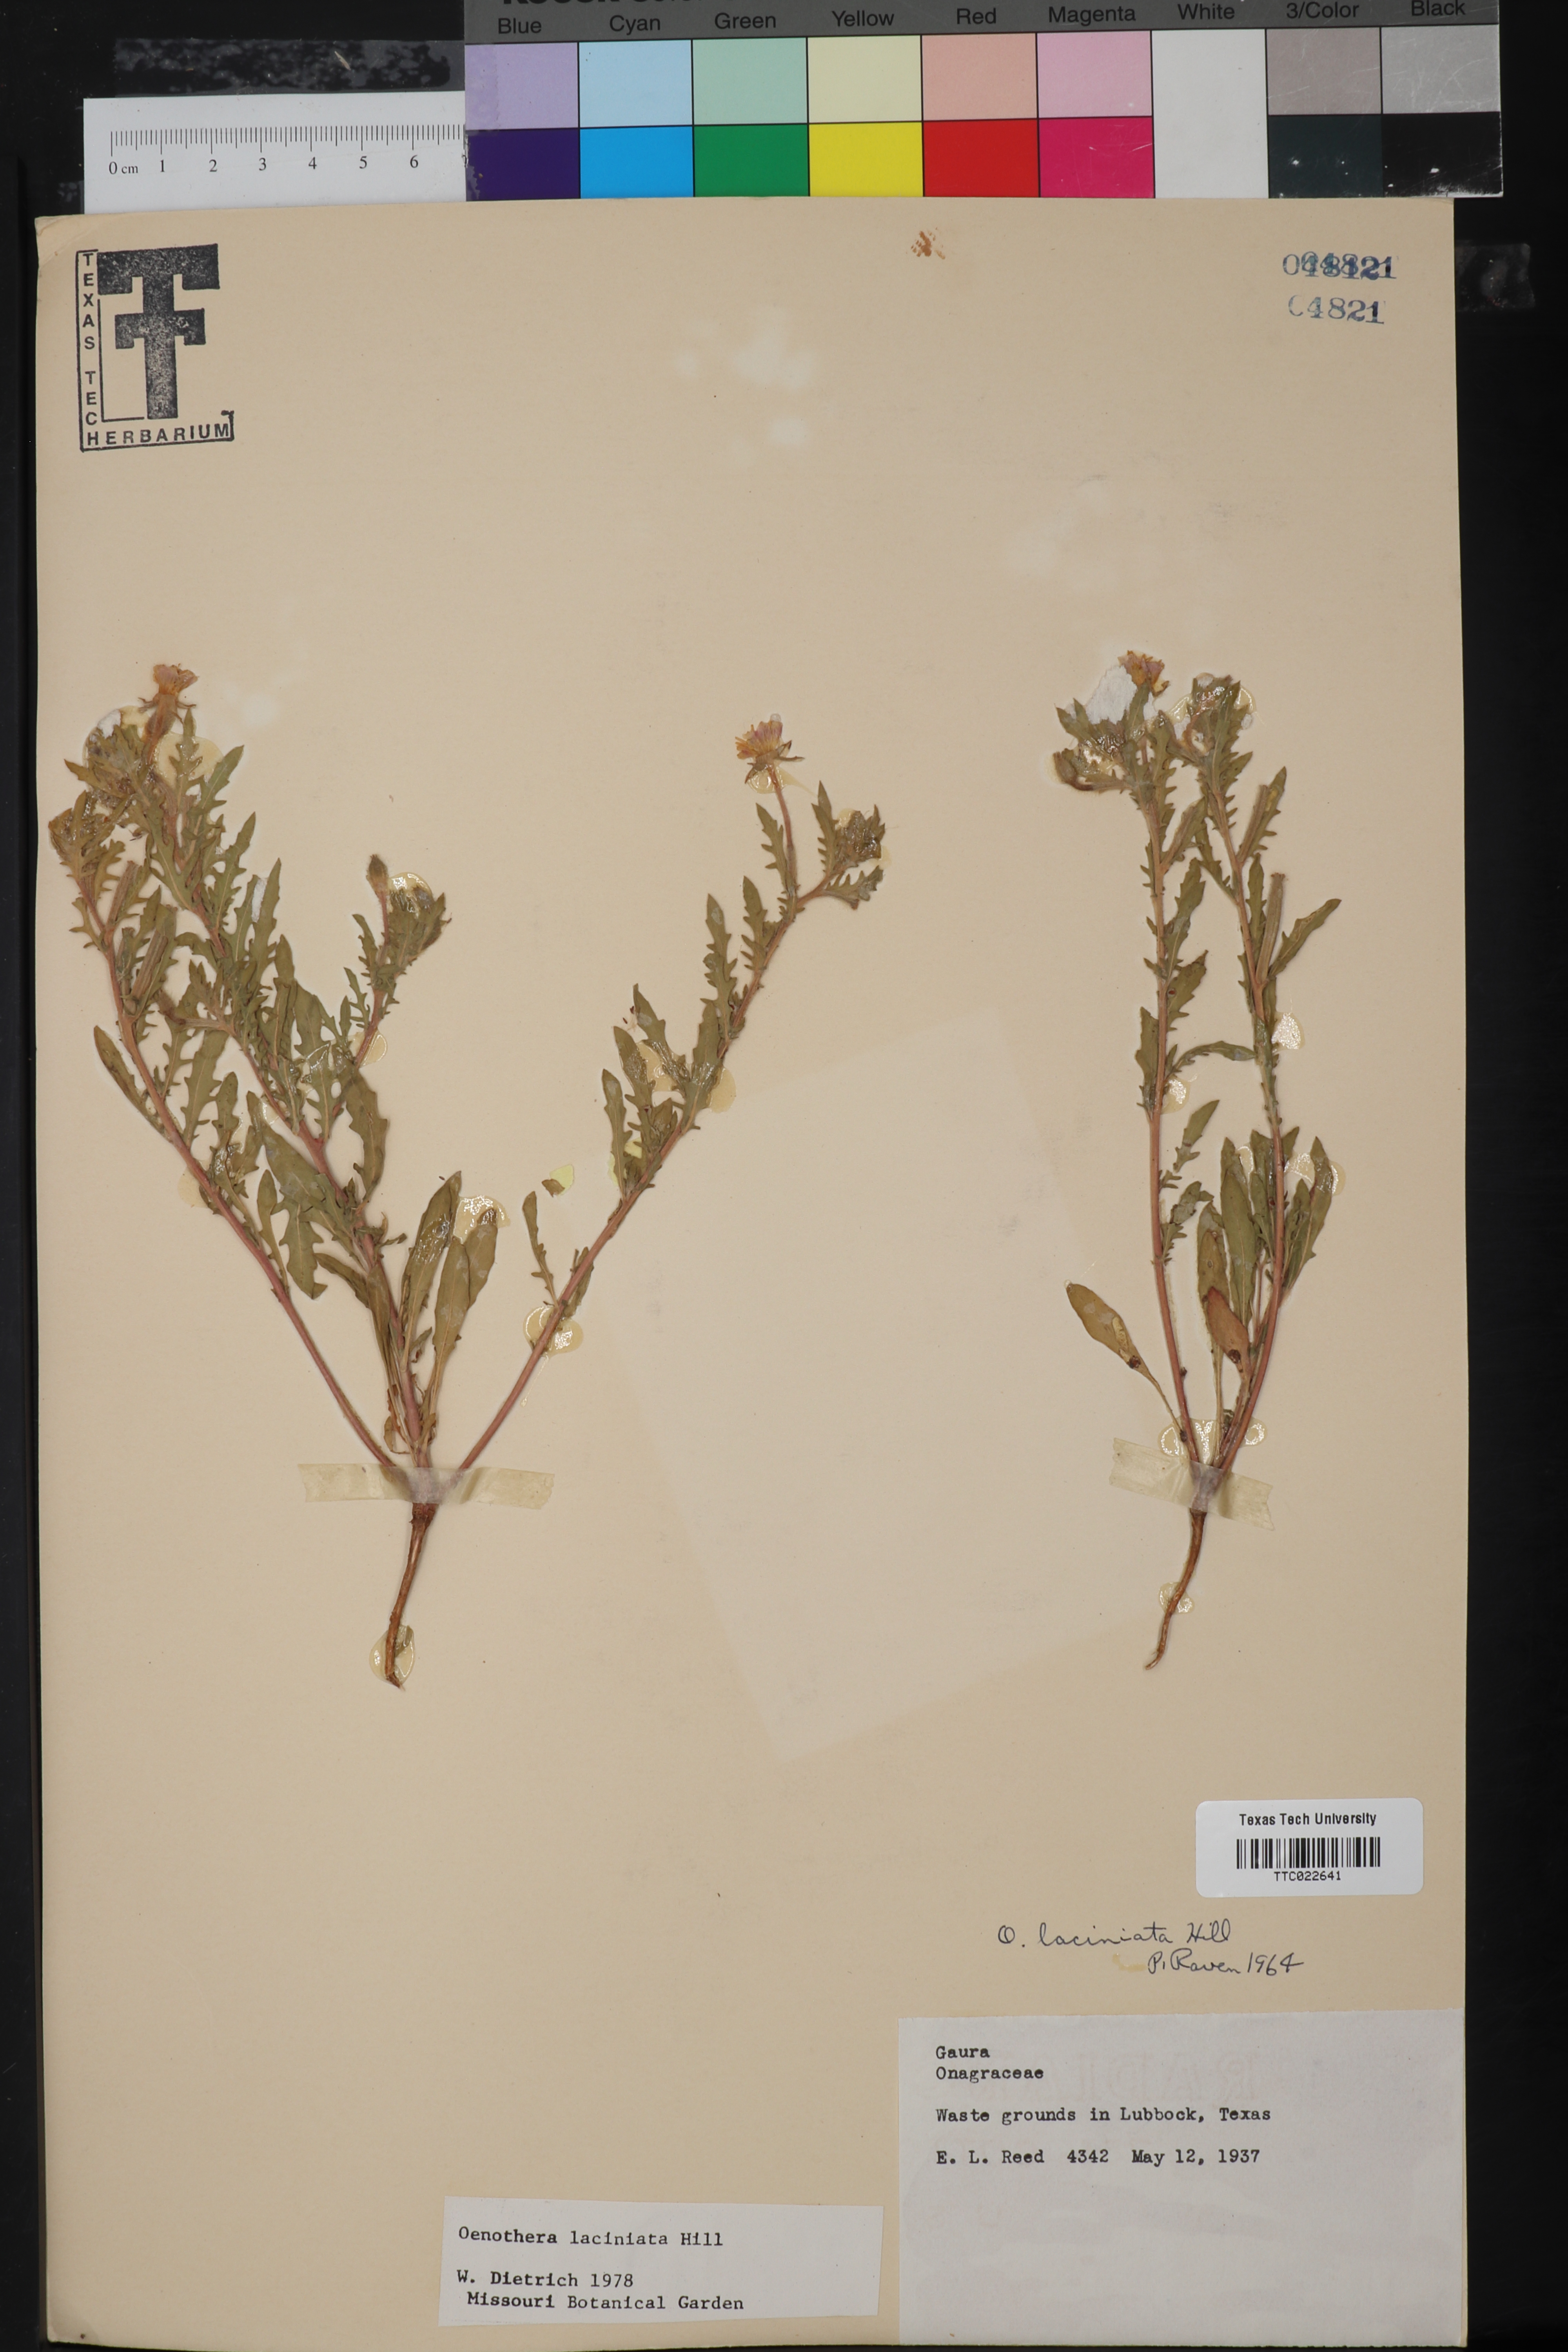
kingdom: Plantae
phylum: Tracheophyta
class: Magnoliopsida
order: Myrtales
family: Onagraceae
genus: Oenothera
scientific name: Oenothera laciniata
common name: Cut-leaved evening-primrose
